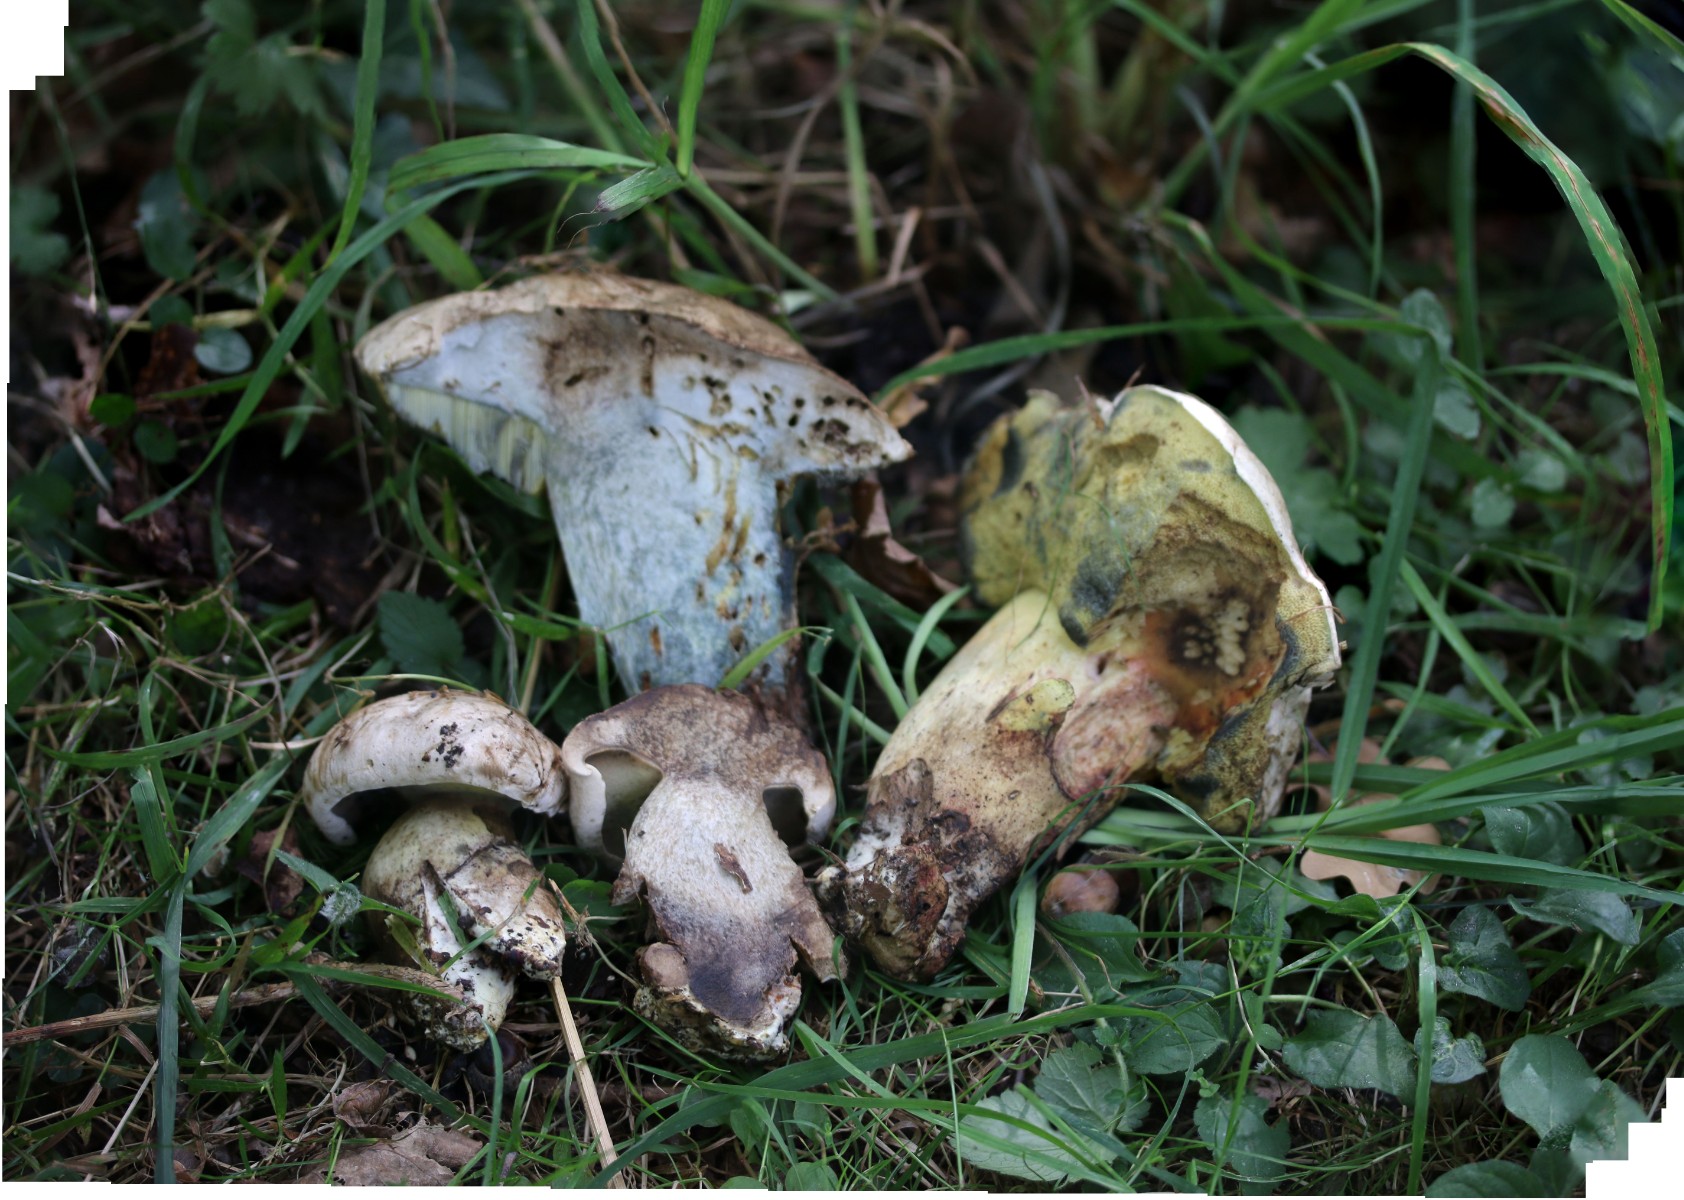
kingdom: Fungi
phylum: Basidiomycota
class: Agaricomycetes
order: Boletales
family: Boletaceae
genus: Caloboletus
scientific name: Caloboletus radicans
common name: rod-rørhat
